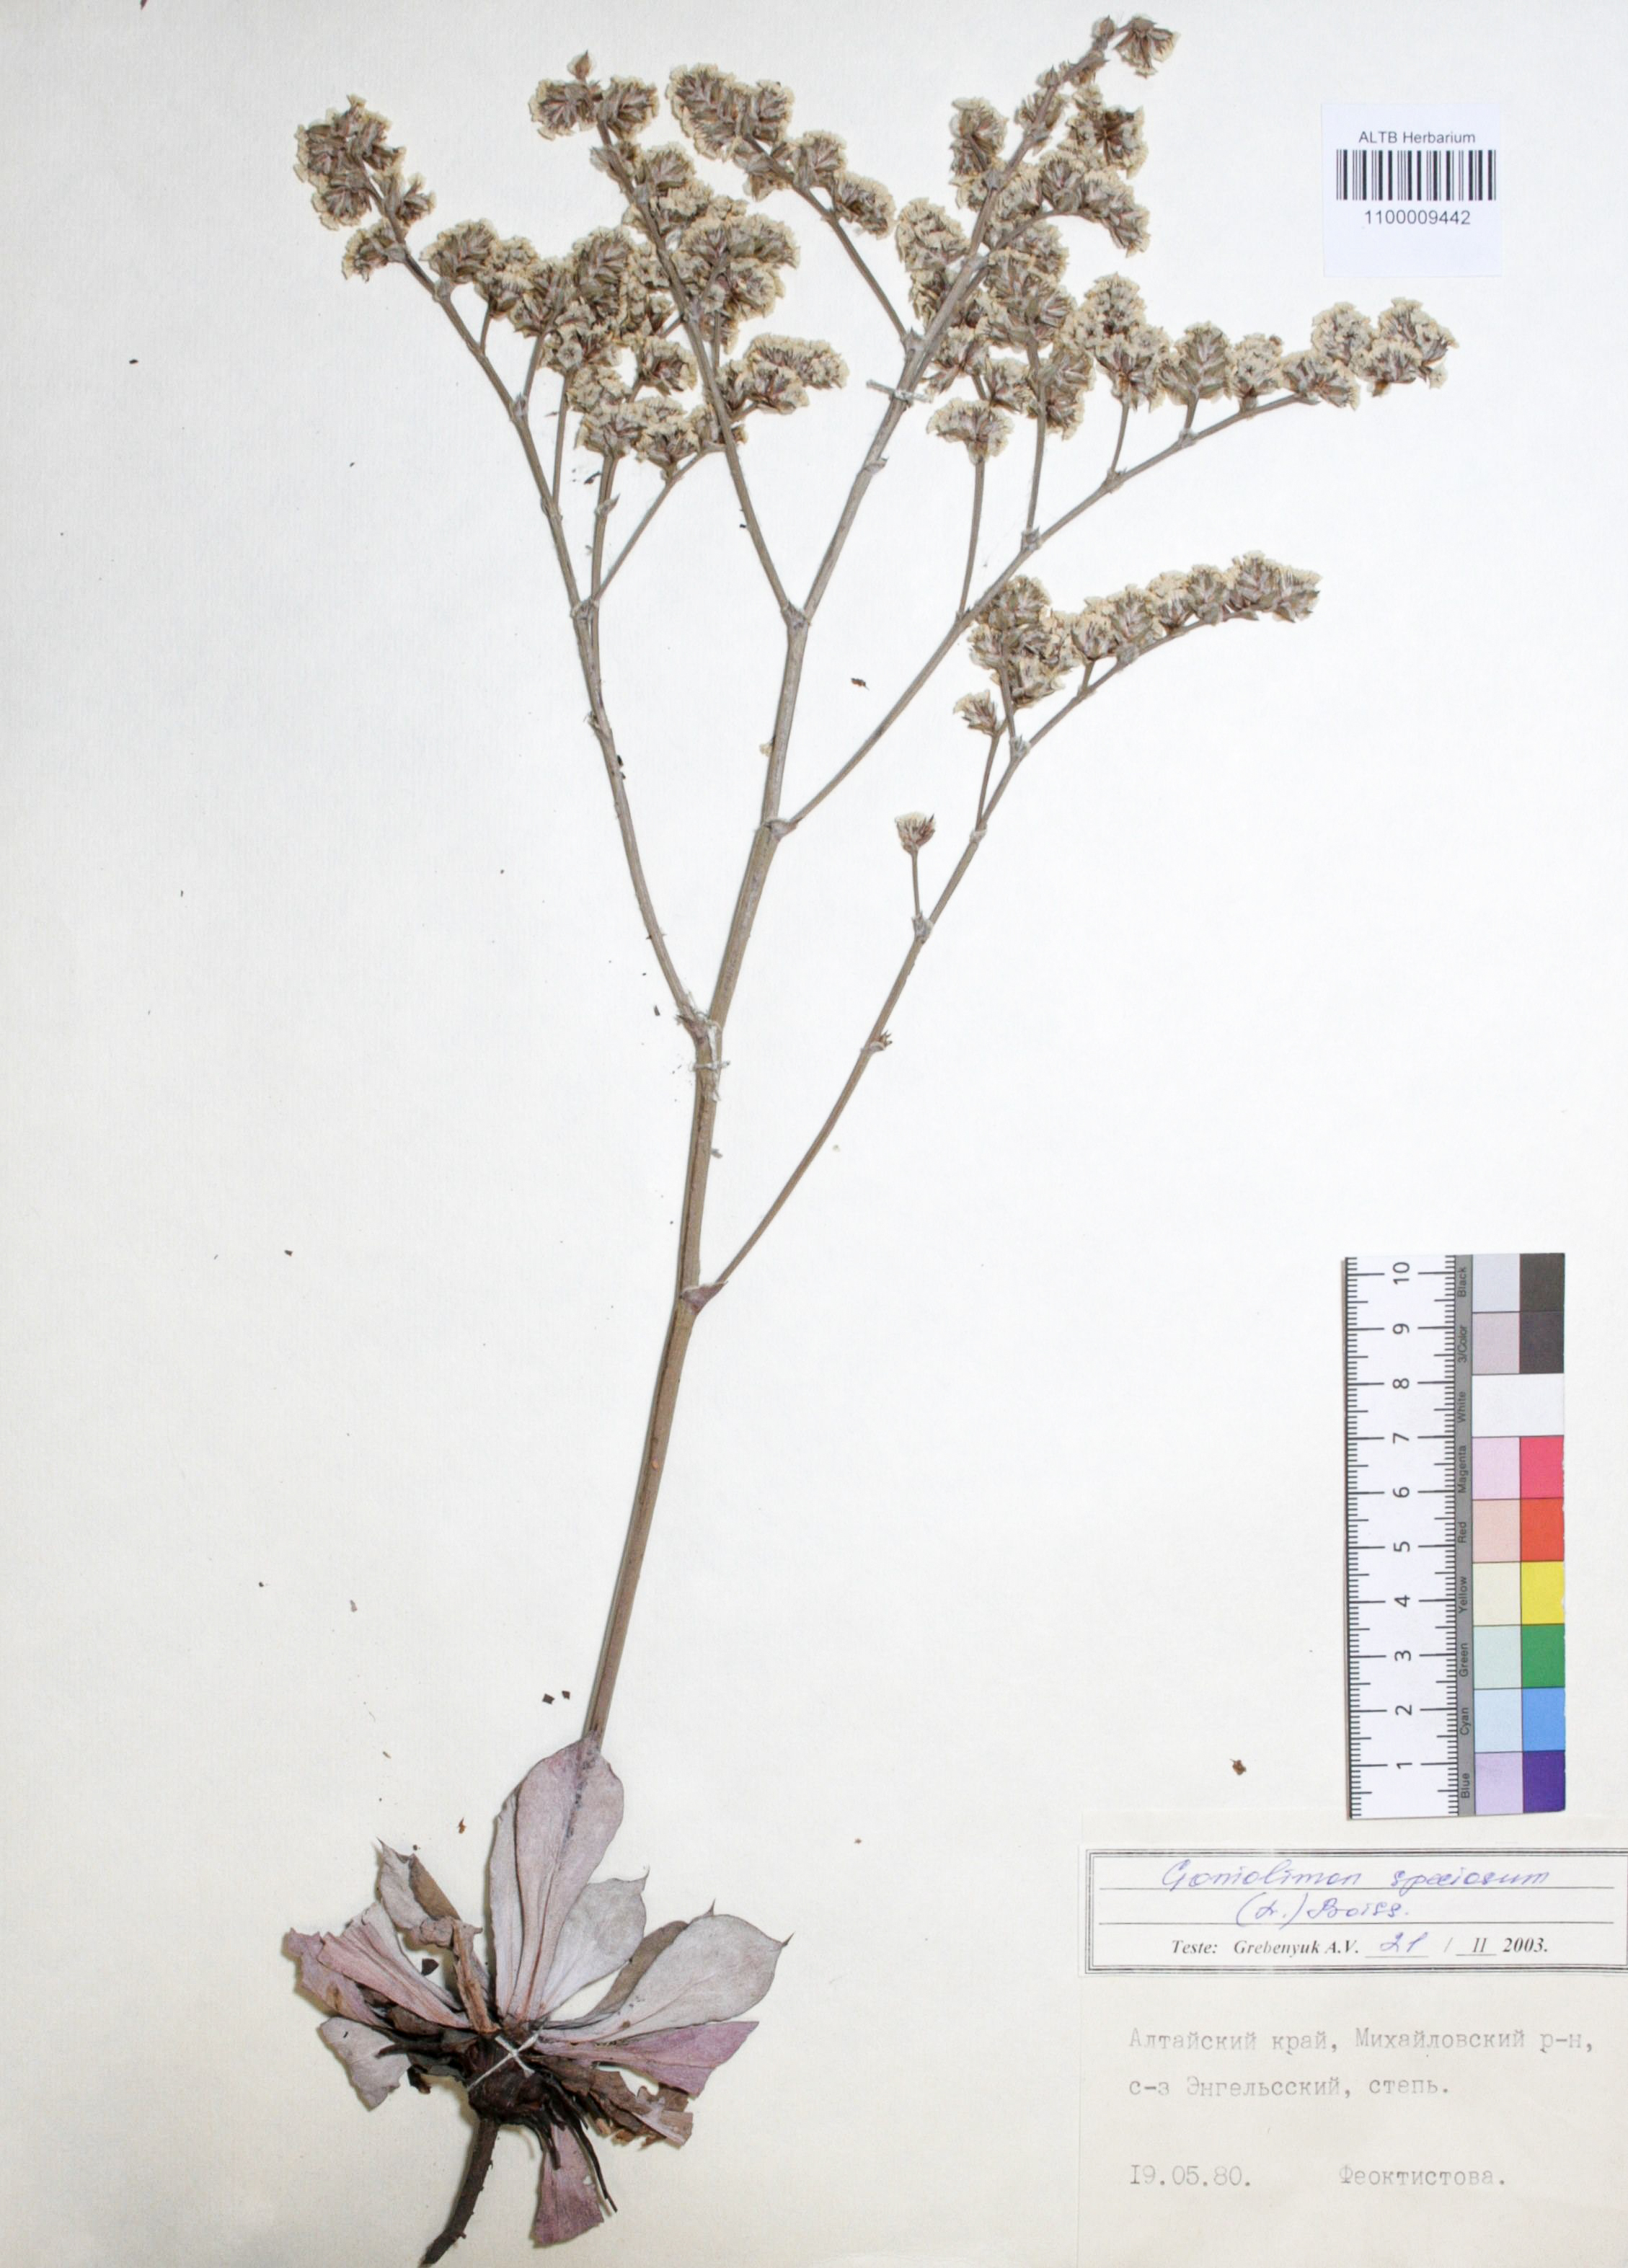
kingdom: Plantae
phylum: Tracheophyta
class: Magnoliopsida
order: Caryophyllales
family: Plumbaginaceae
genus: Goniolimon
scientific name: Goniolimon speciosum
